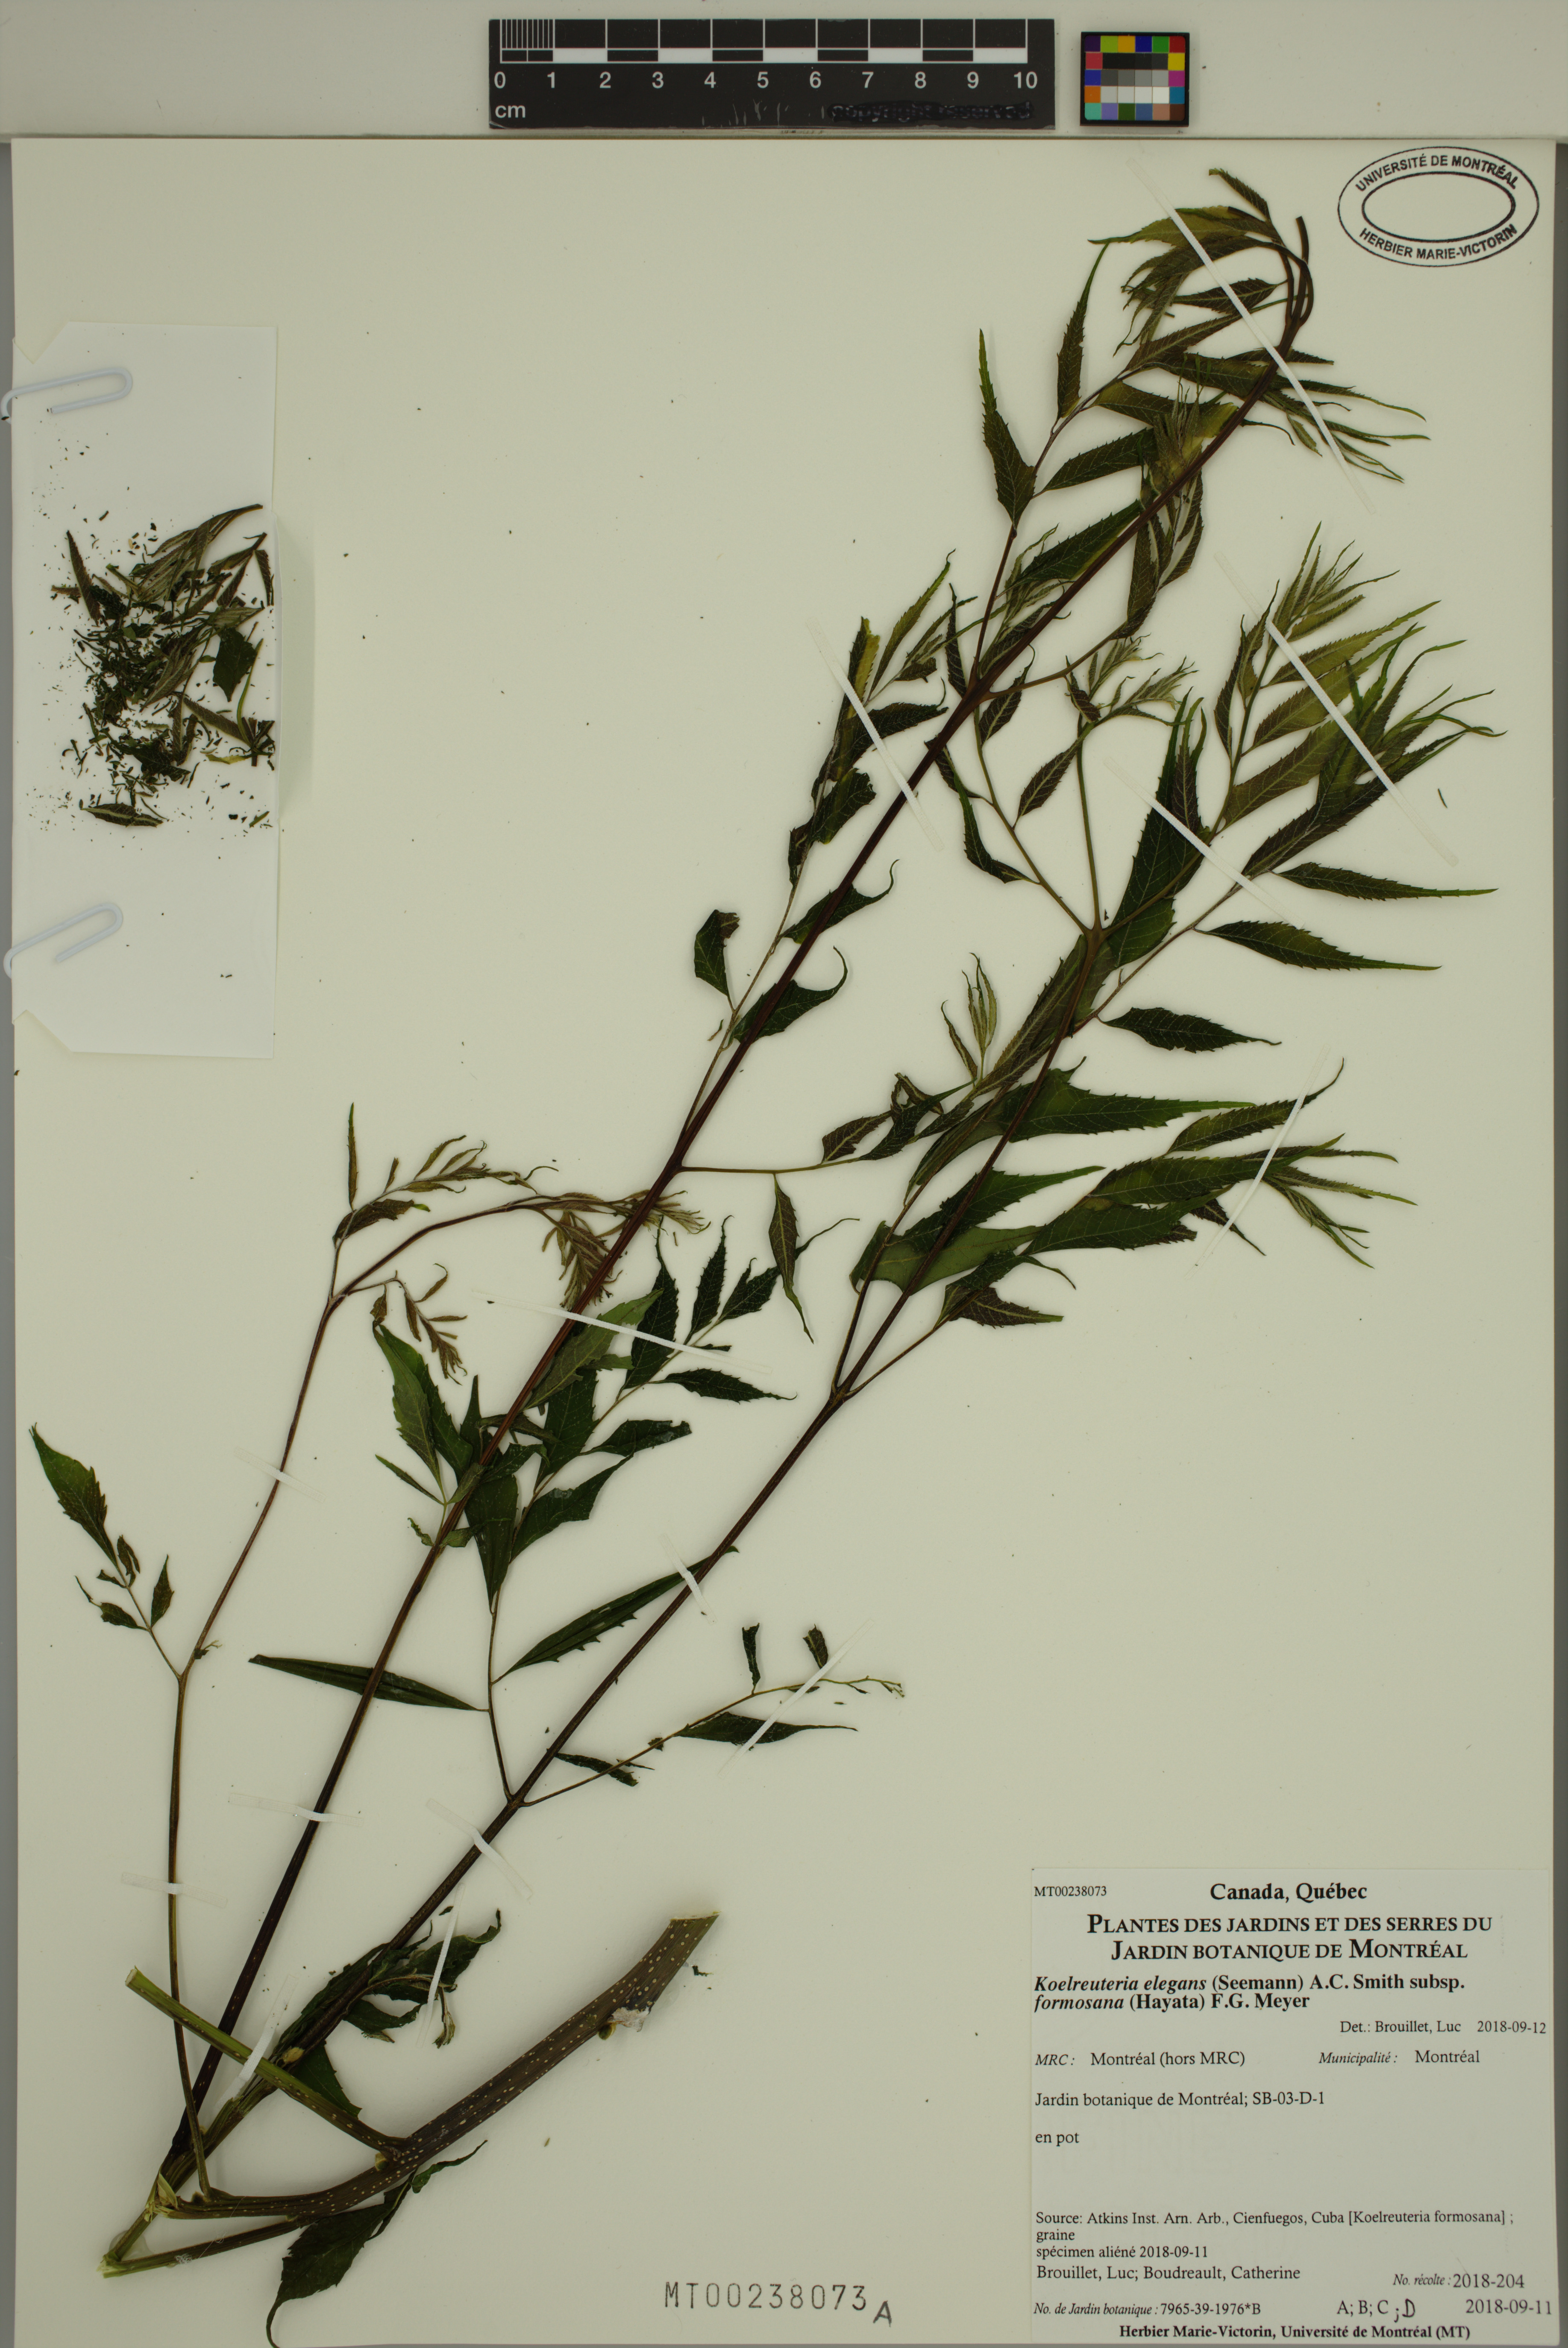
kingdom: Plantae
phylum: Tracheophyta
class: Magnoliopsida
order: Sapindales
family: Sapindaceae
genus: Koelreuteria
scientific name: Koelreuteria elegans
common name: Chinese flame tree
